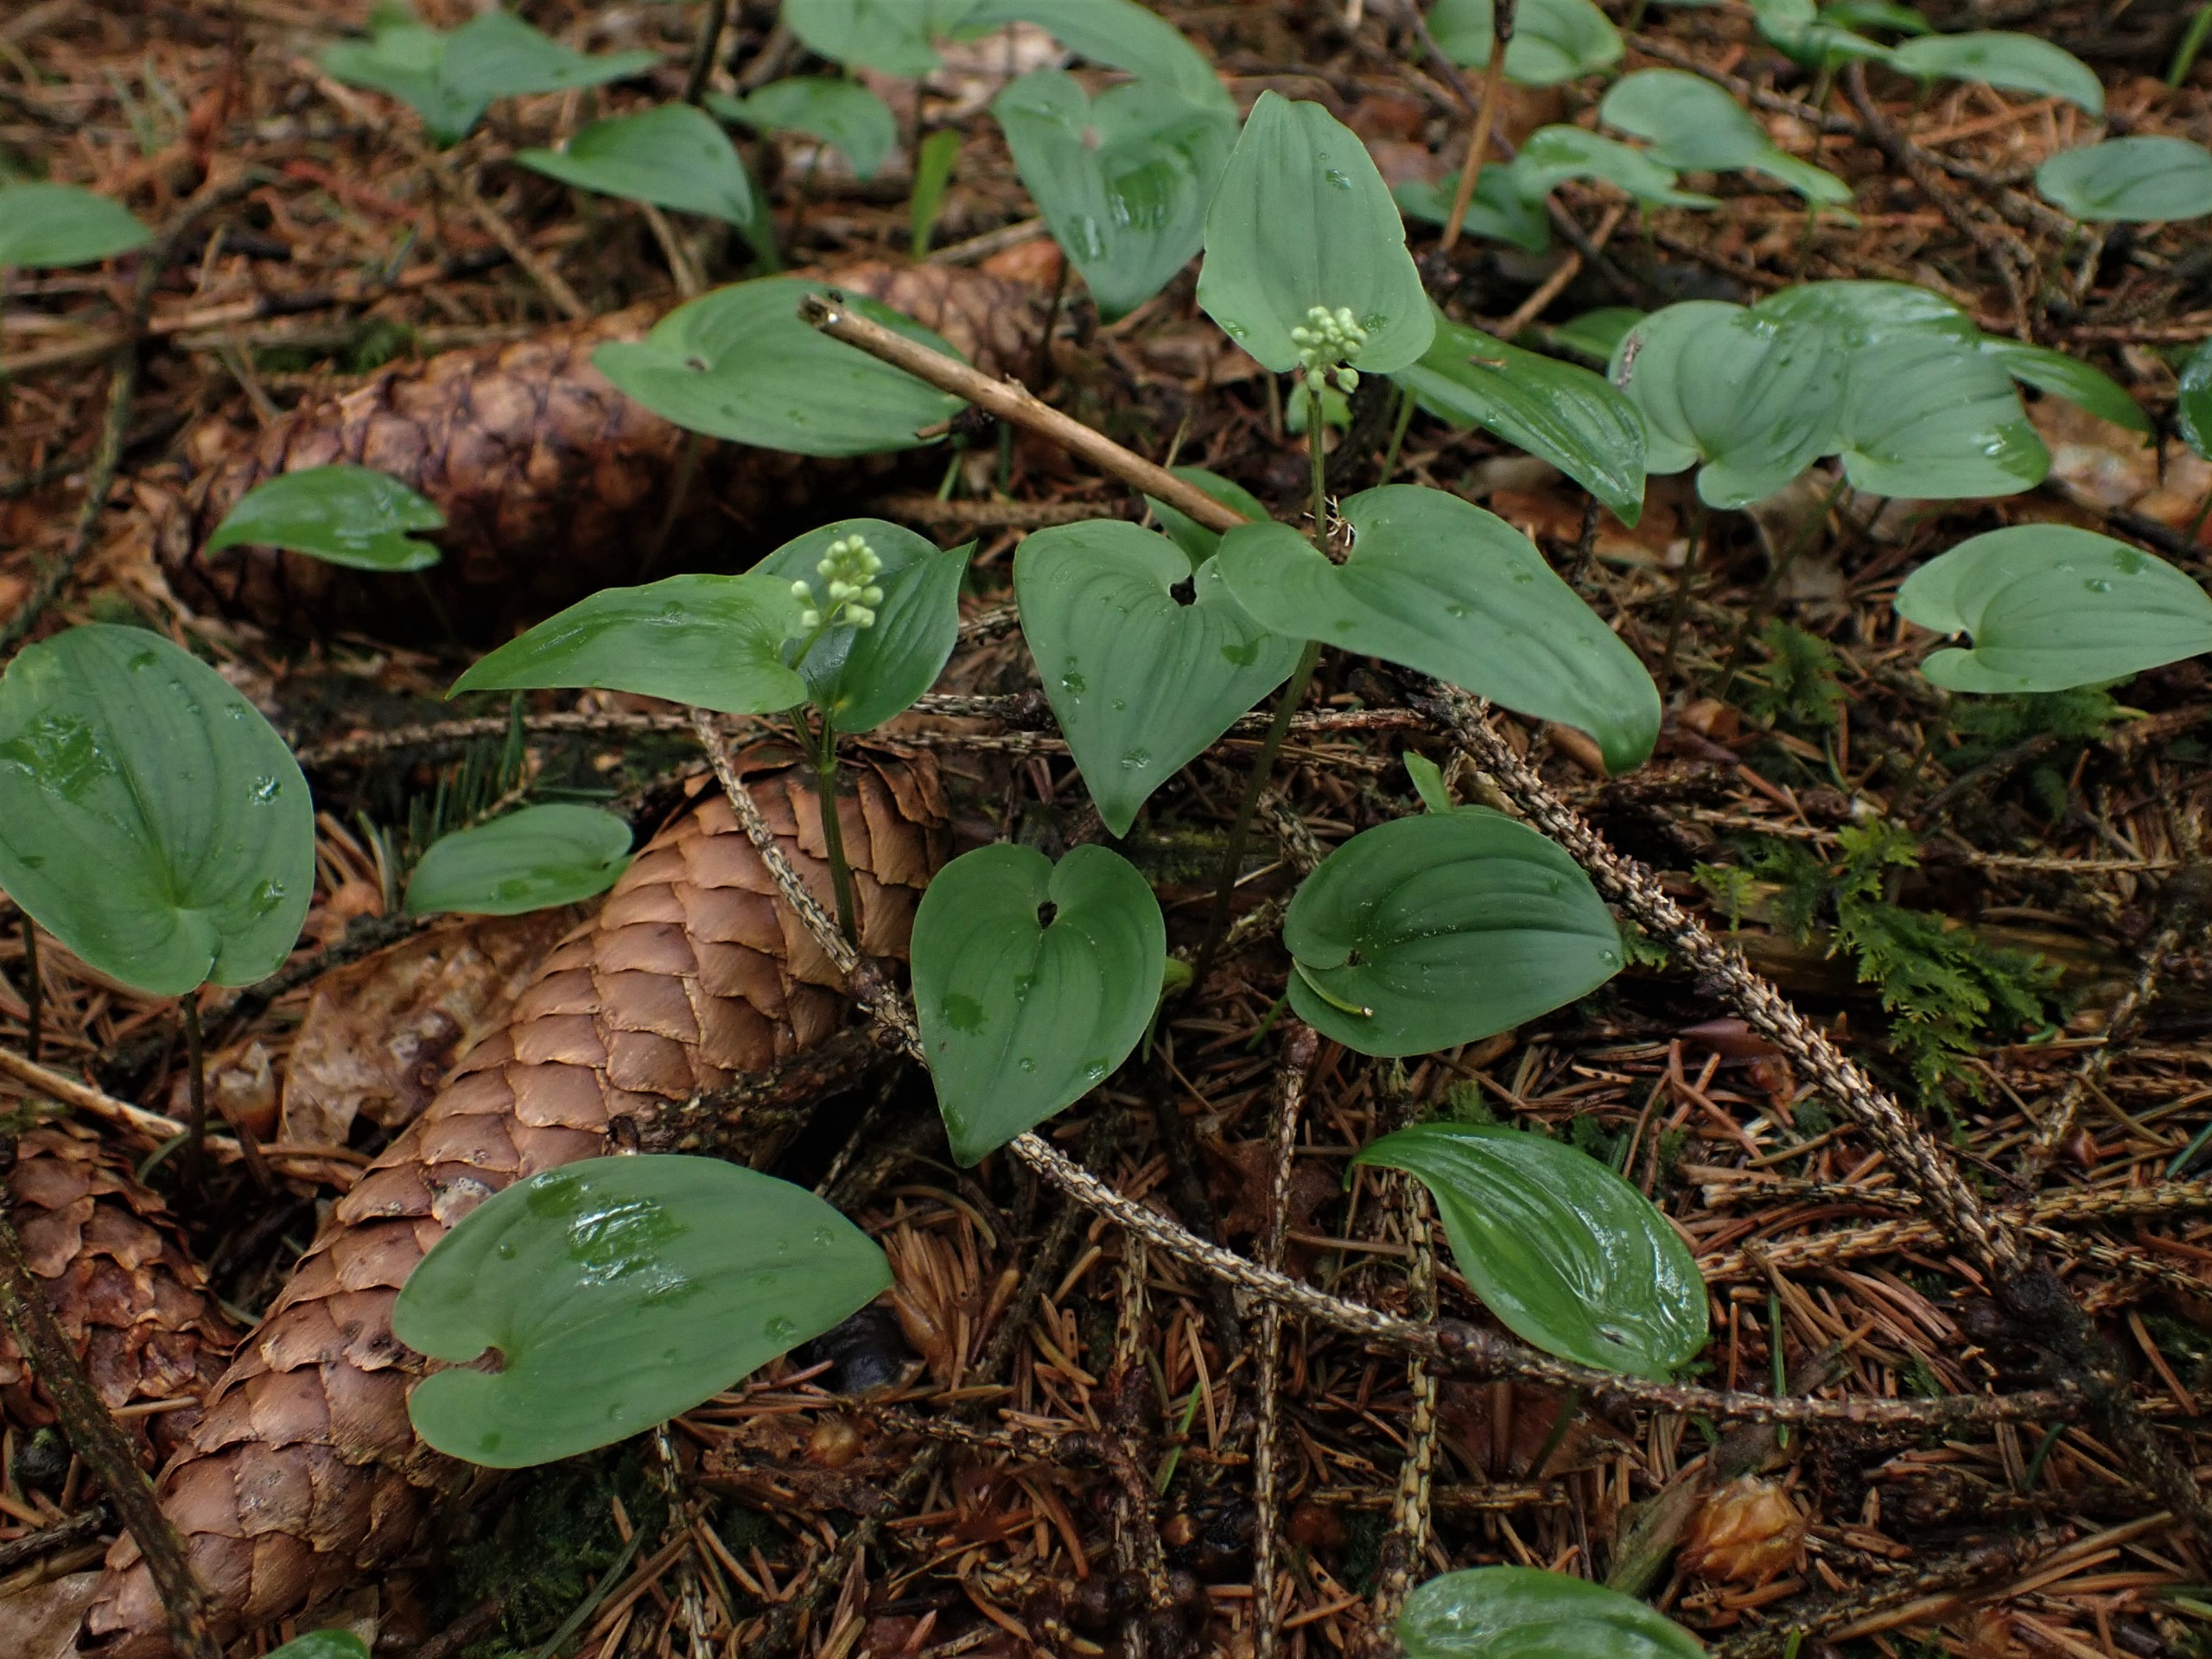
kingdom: Plantae
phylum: Tracheophyta
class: Liliopsida
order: Asparagales
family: Asparagaceae
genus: Maianthemum
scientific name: Maianthemum bifolium
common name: Majblomst
